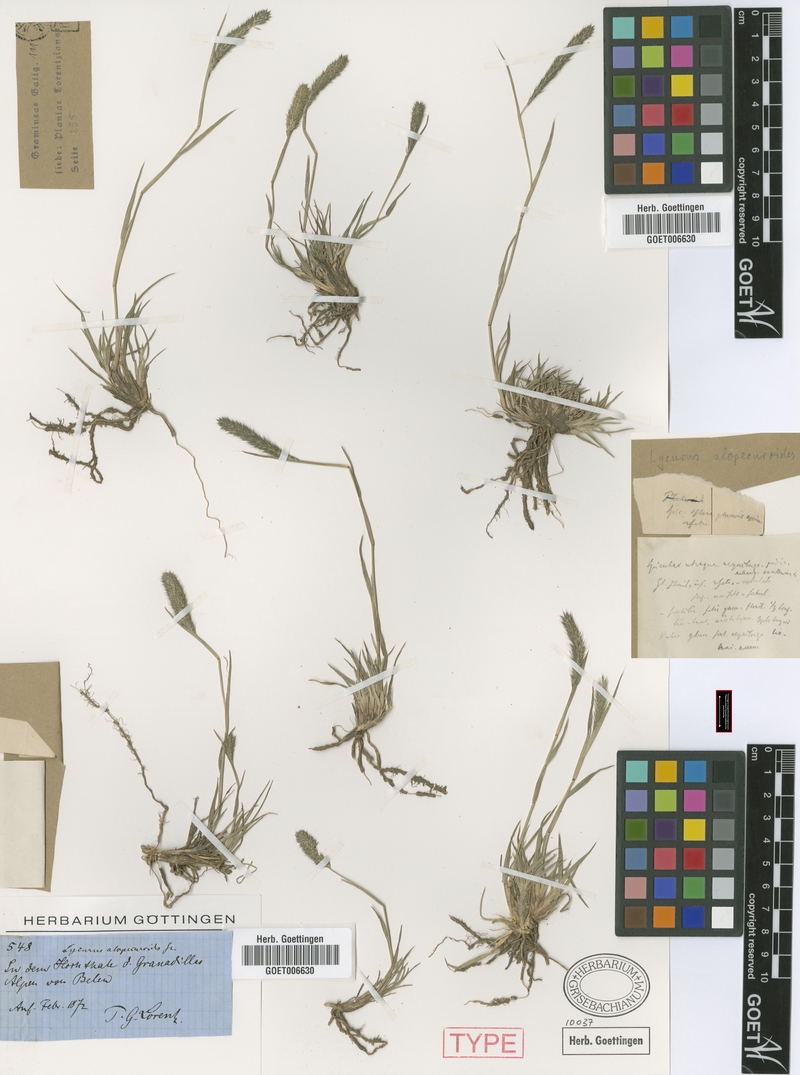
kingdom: Plantae
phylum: Tracheophyta
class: Liliopsida
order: Poales
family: Poaceae
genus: Muhlenbergia
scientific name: Muhlenbergia alopecuroides
